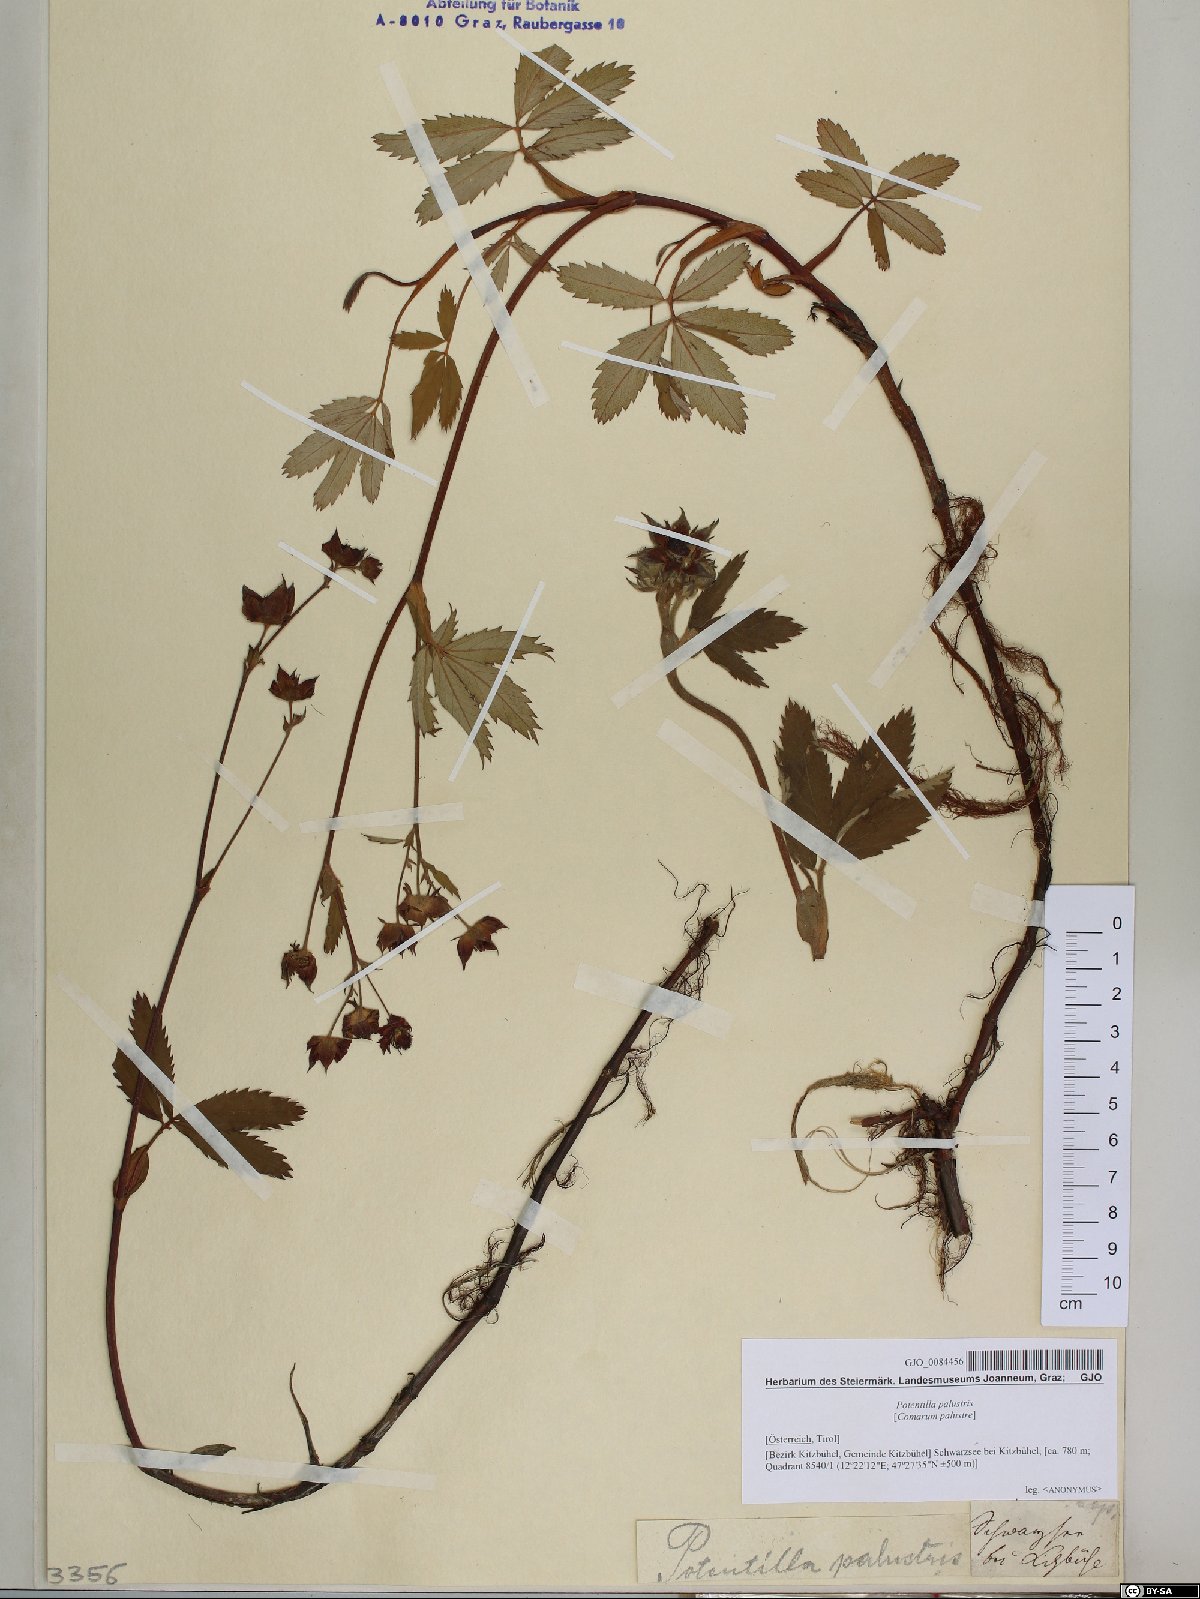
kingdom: Plantae
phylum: Tracheophyta
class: Magnoliopsida
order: Rosales
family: Rosaceae
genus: Comarum
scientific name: Comarum palustre
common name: Marsh cinquefoil
